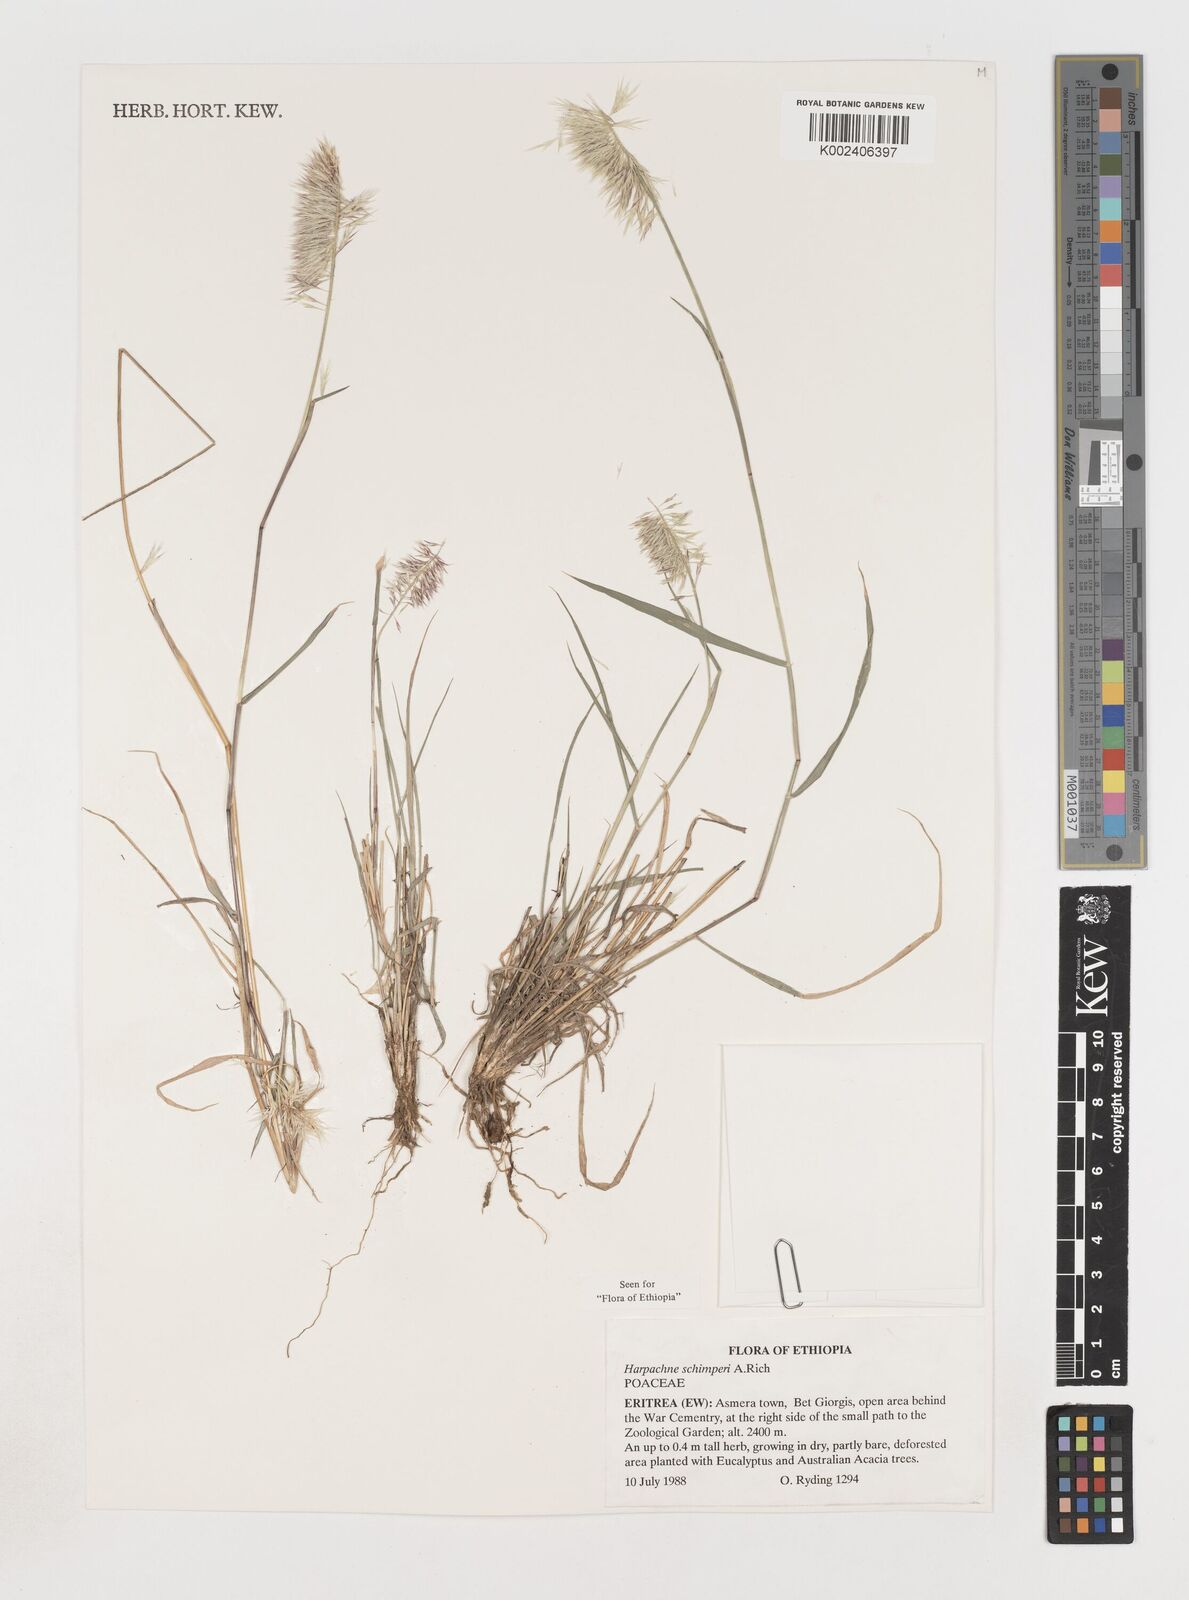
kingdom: Plantae
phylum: Tracheophyta
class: Liliopsida
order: Poales
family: Poaceae
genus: Harpachne
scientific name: Harpachne schimperi
